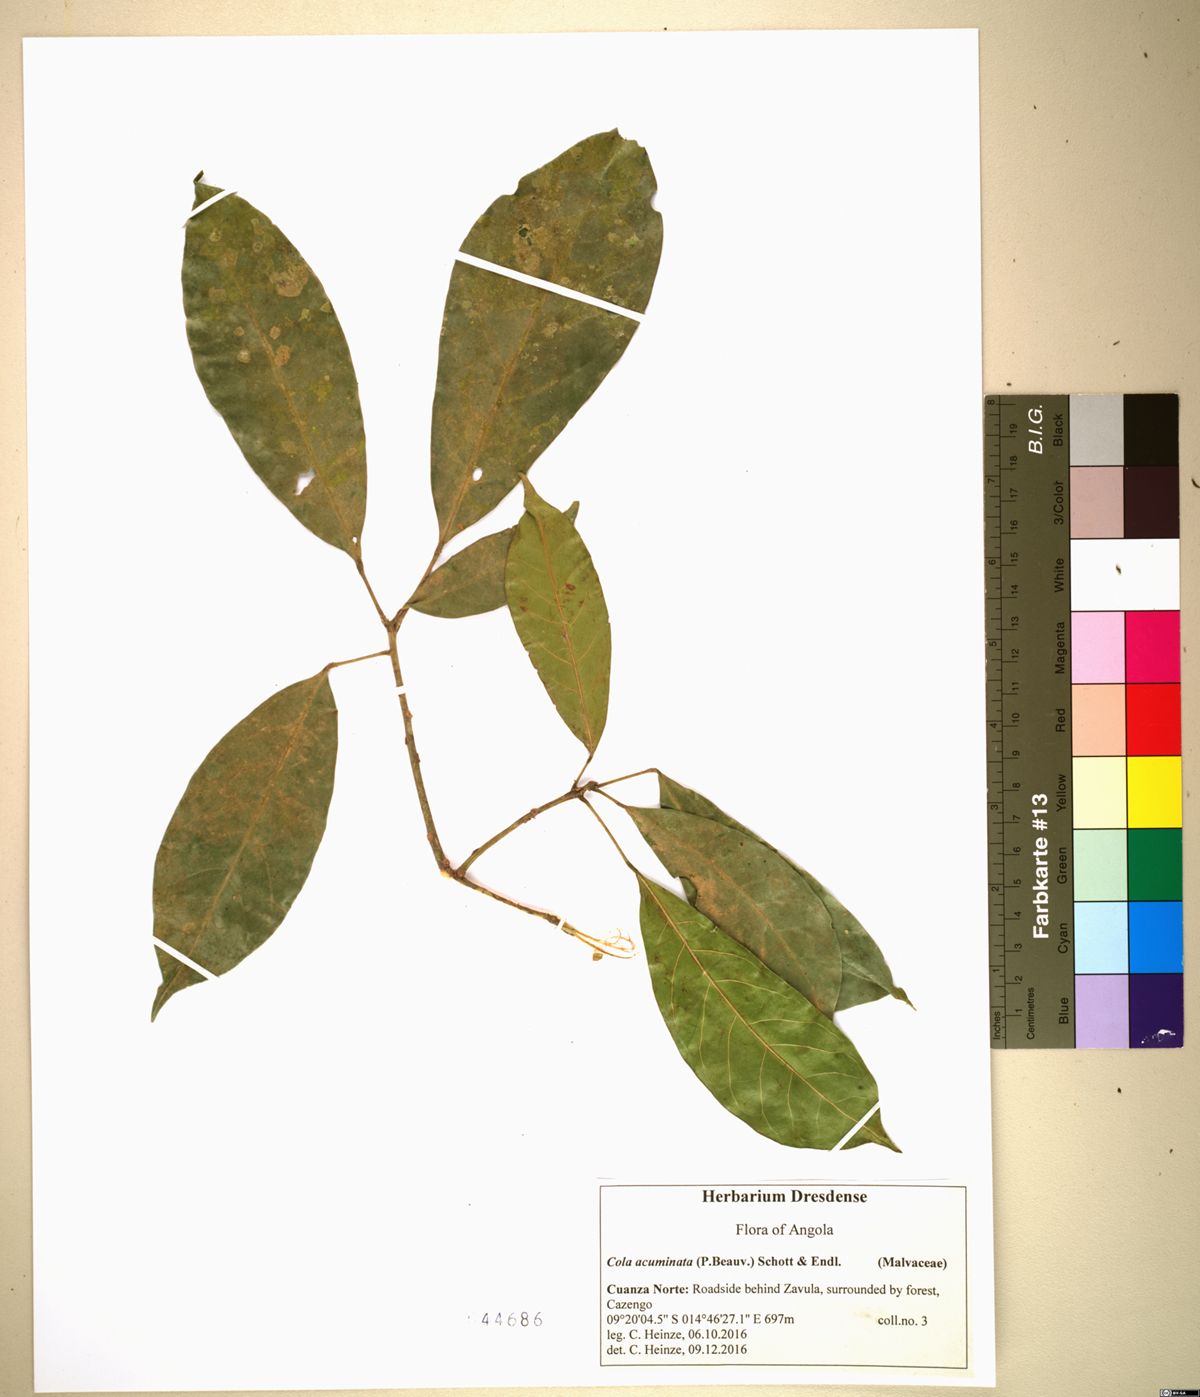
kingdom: Plantae
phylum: Tracheophyta
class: Magnoliopsida
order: Malvales
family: Malvaceae
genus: Cola
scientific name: Cola acuminata
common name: True kola
